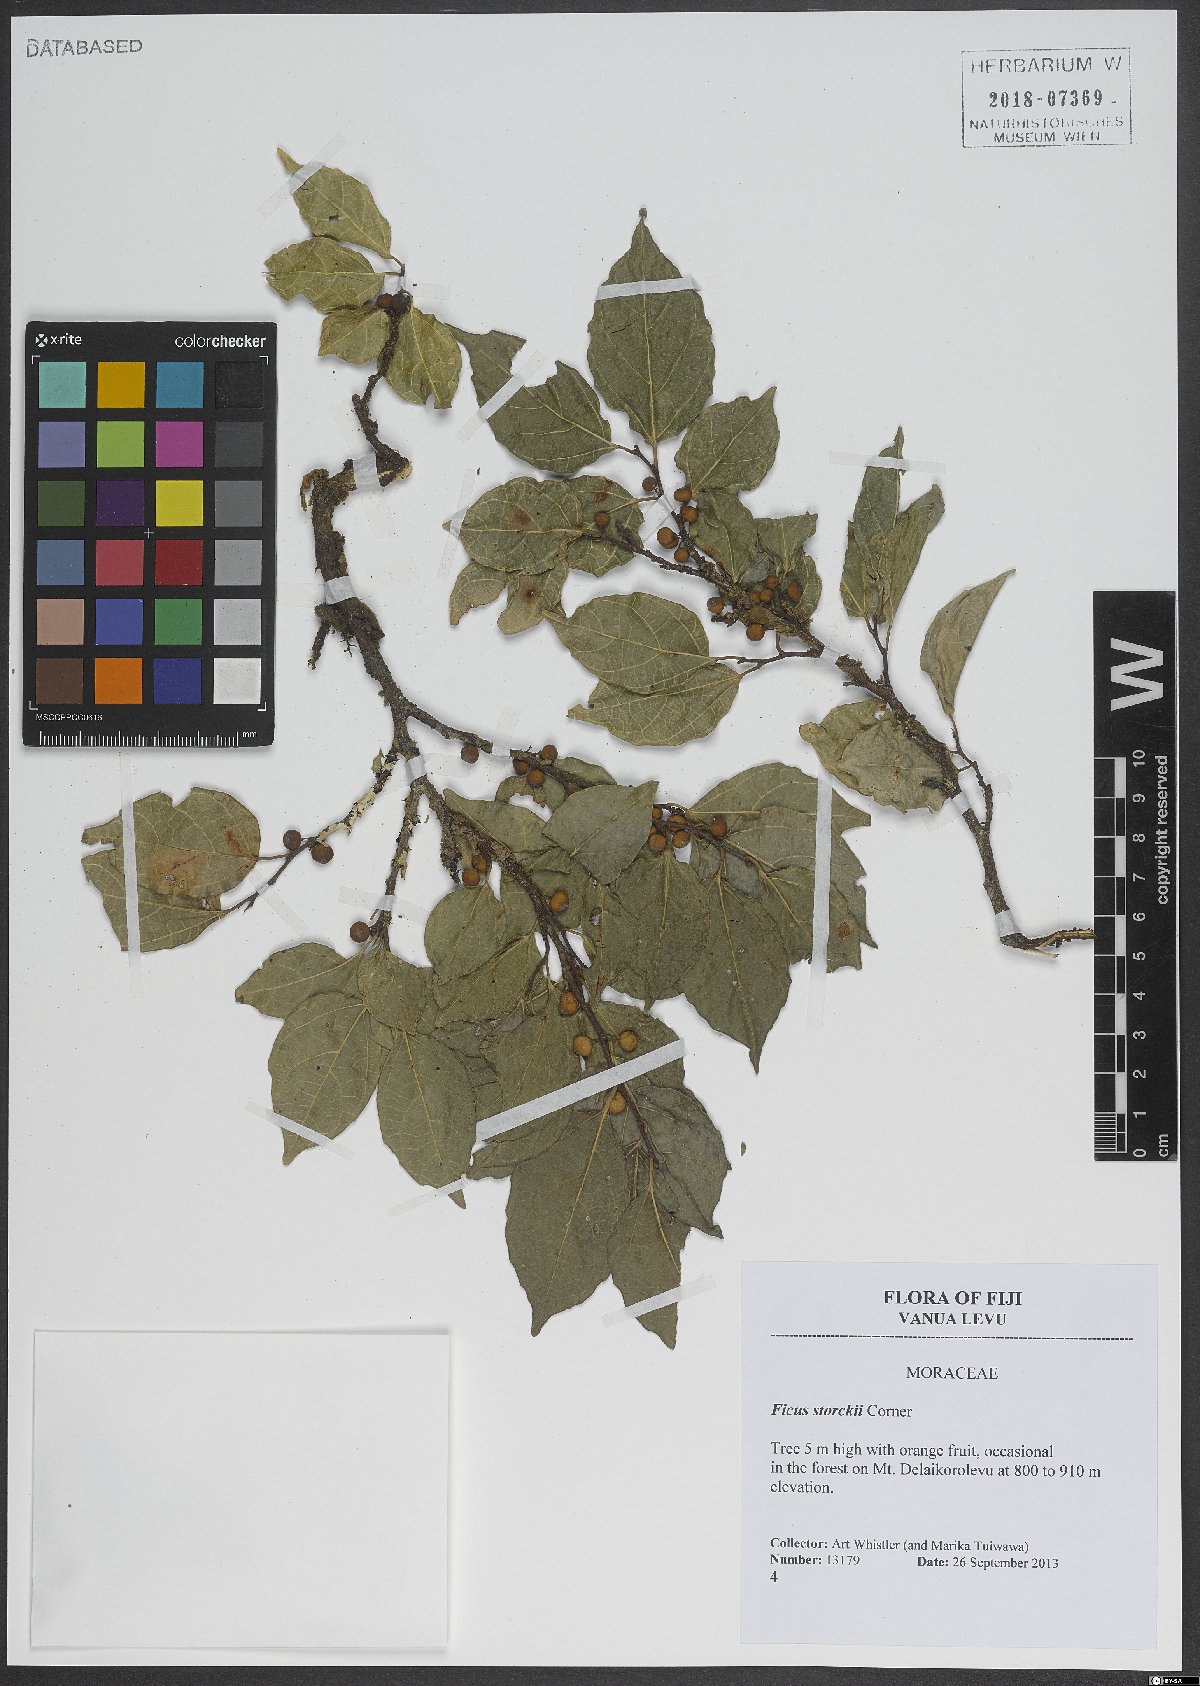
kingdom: Plantae
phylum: Tracheophyta
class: Magnoliopsida
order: Rosales
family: Moraceae
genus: Ficus
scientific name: Ficus storckii
